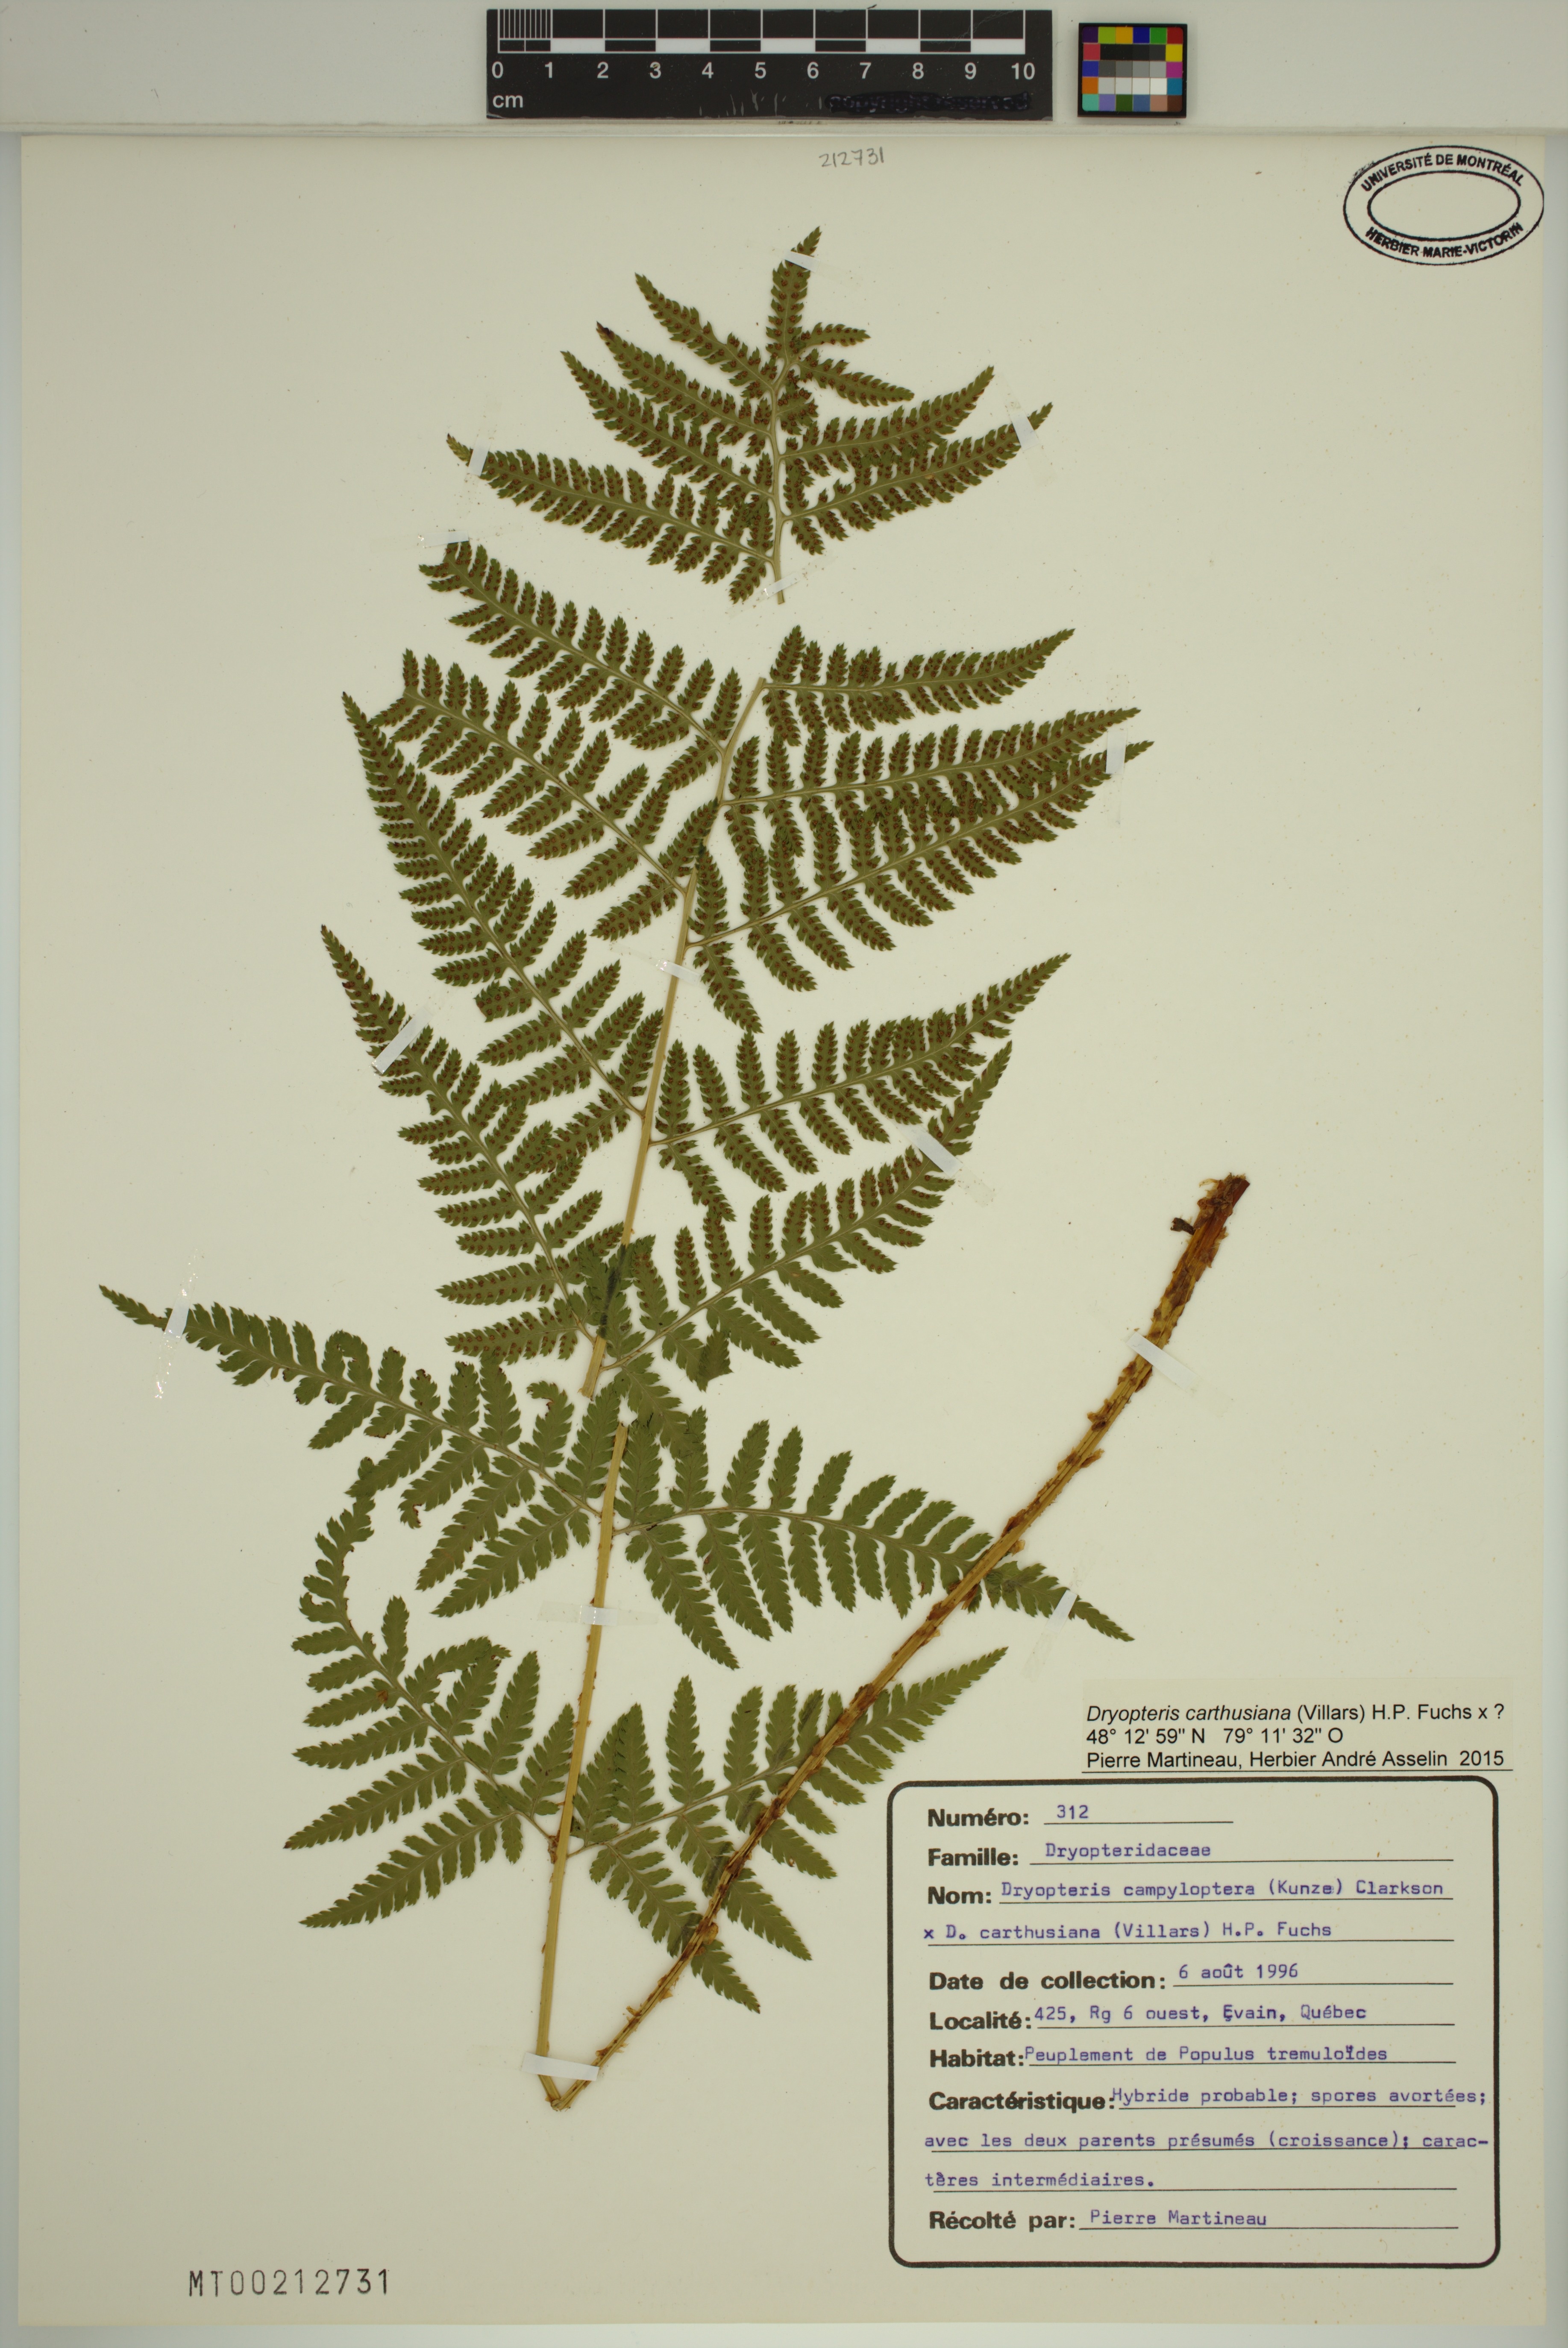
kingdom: Plantae
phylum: Tracheophyta
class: Polypodiopsida
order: Polypodiales
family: Dryopteridaceae
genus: Dryopteris
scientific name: Dryopteris carthusiana
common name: Narrow buckler-fern
